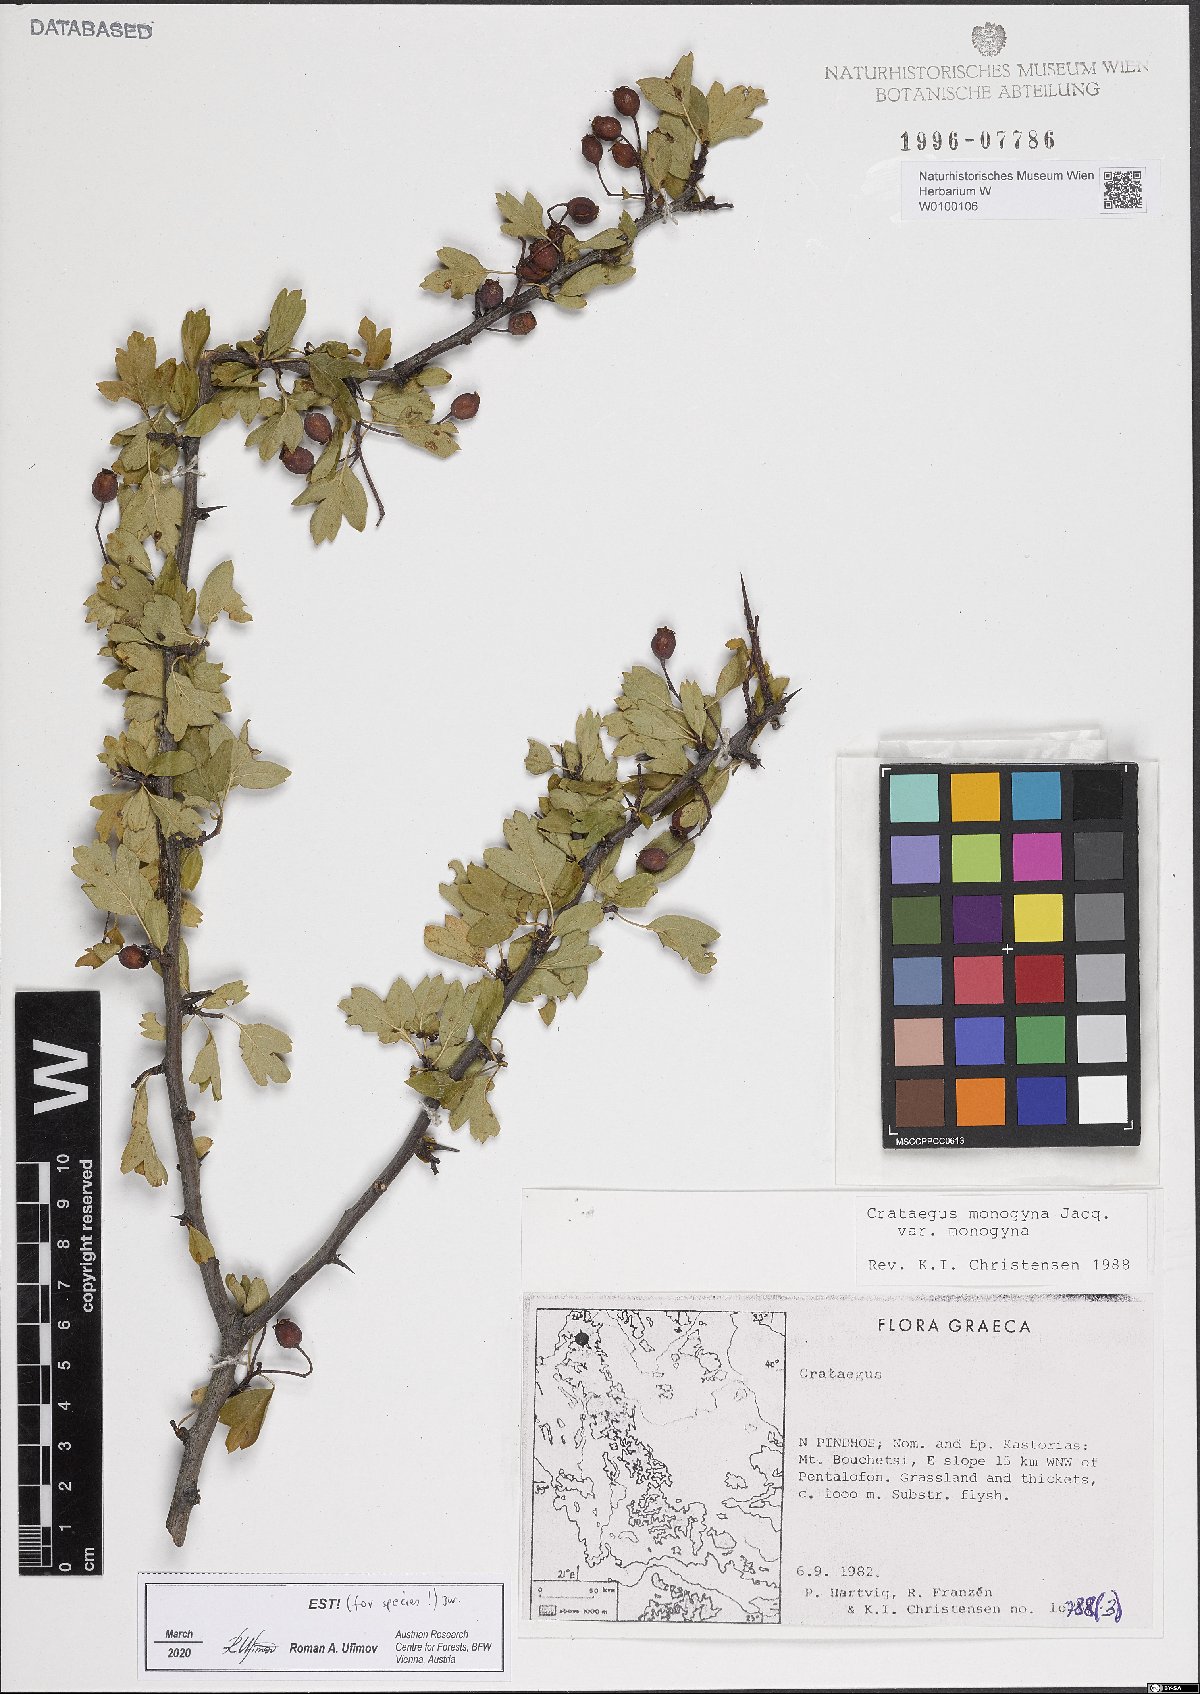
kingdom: Plantae
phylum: Tracheophyta
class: Magnoliopsida
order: Rosales
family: Rosaceae
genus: Crataegus
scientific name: Crataegus monogyna
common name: Hawthorn
